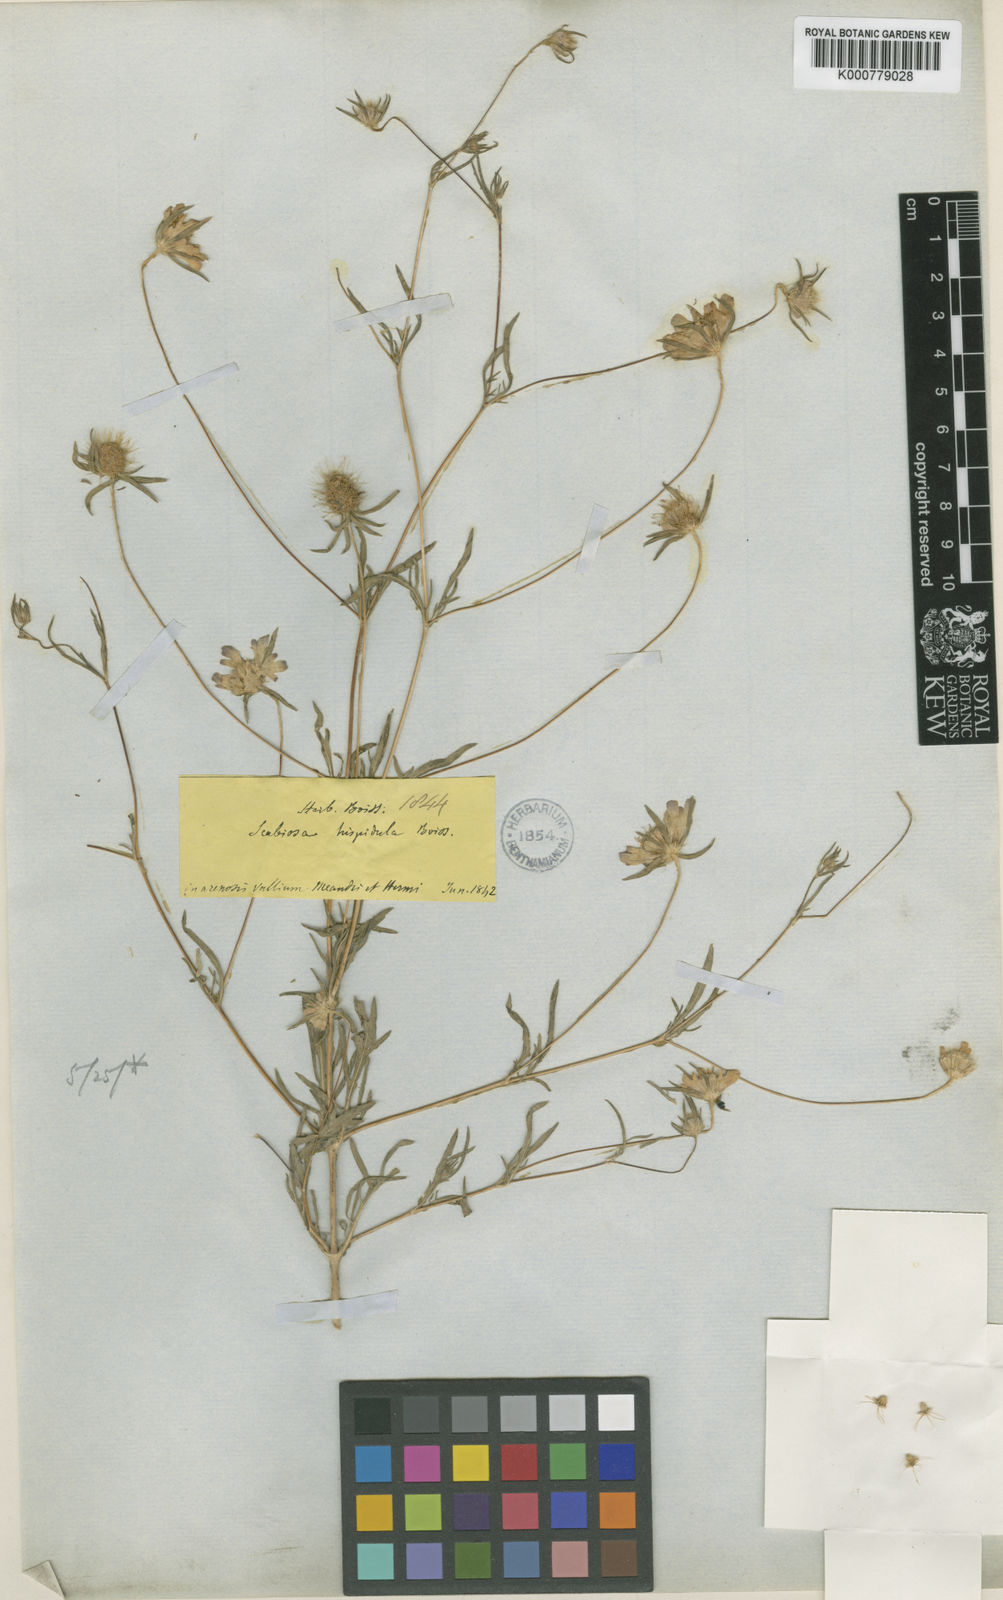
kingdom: Plantae
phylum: Tracheophyta
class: Magnoliopsida
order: Dipsacales
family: Caprifoliaceae
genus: Lomelosia
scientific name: Lomelosia hispidula
